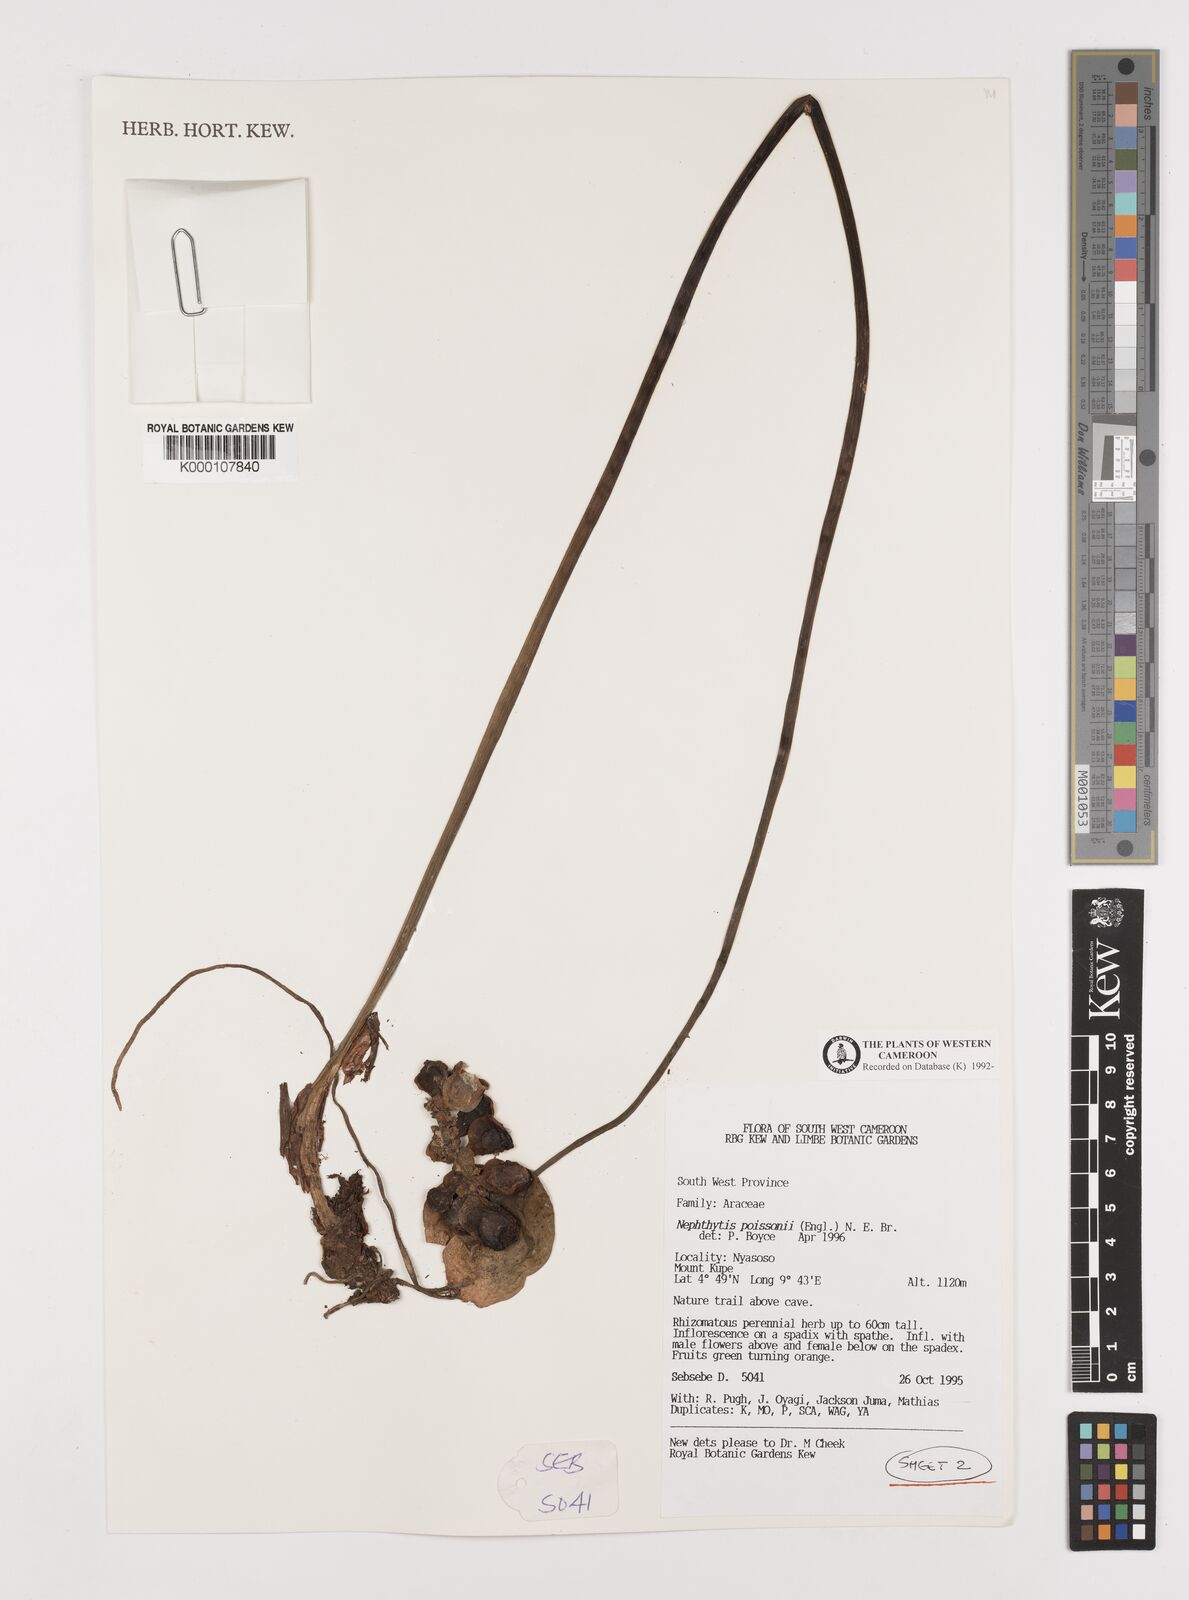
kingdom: Plantae
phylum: Tracheophyta
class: Liliopsida
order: Alismatales
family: Araceae
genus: Nephthytis
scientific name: Nephthytis poissonii
